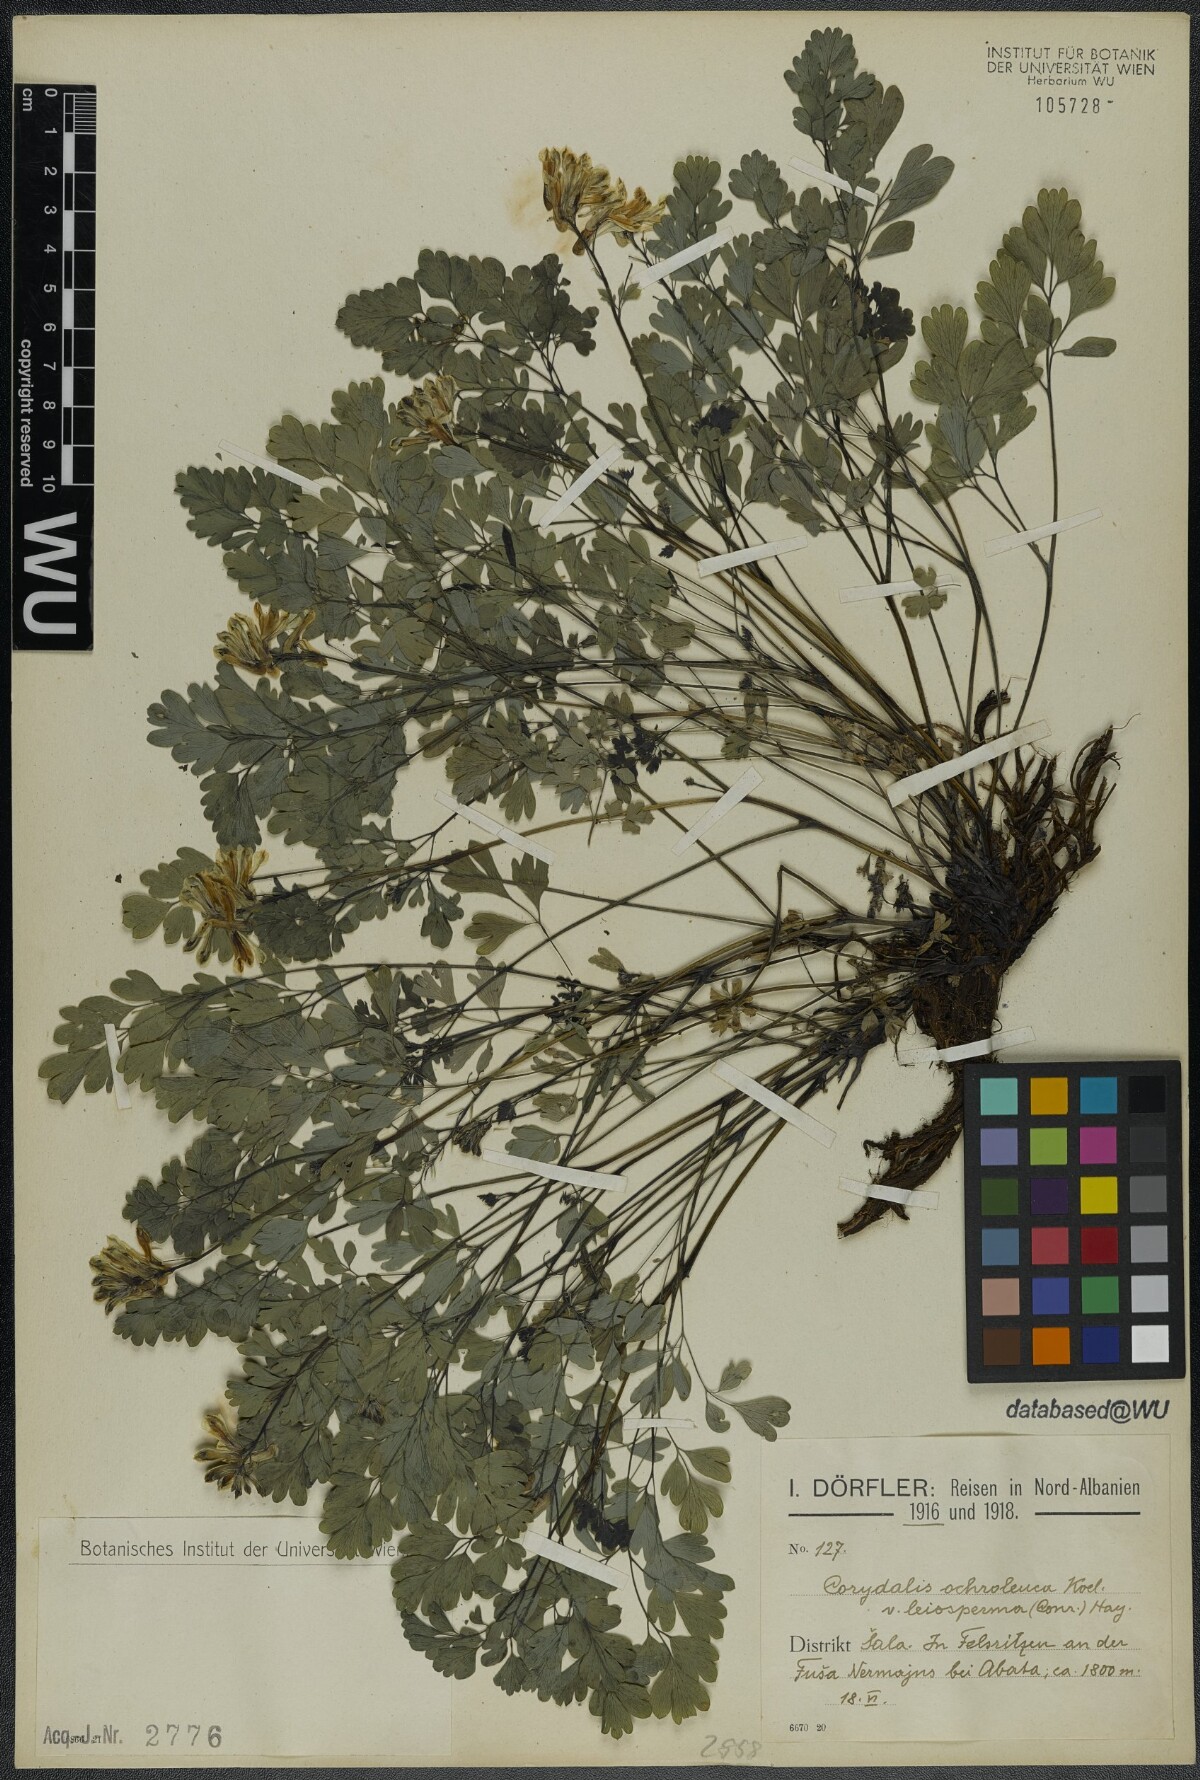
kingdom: Plantae
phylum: Tracheophyta
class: Magnoliopsida
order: Ranunculales
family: Papaveraceae
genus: Pseudofumaria
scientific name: Pseudofumaria alba
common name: Pale corydalis
